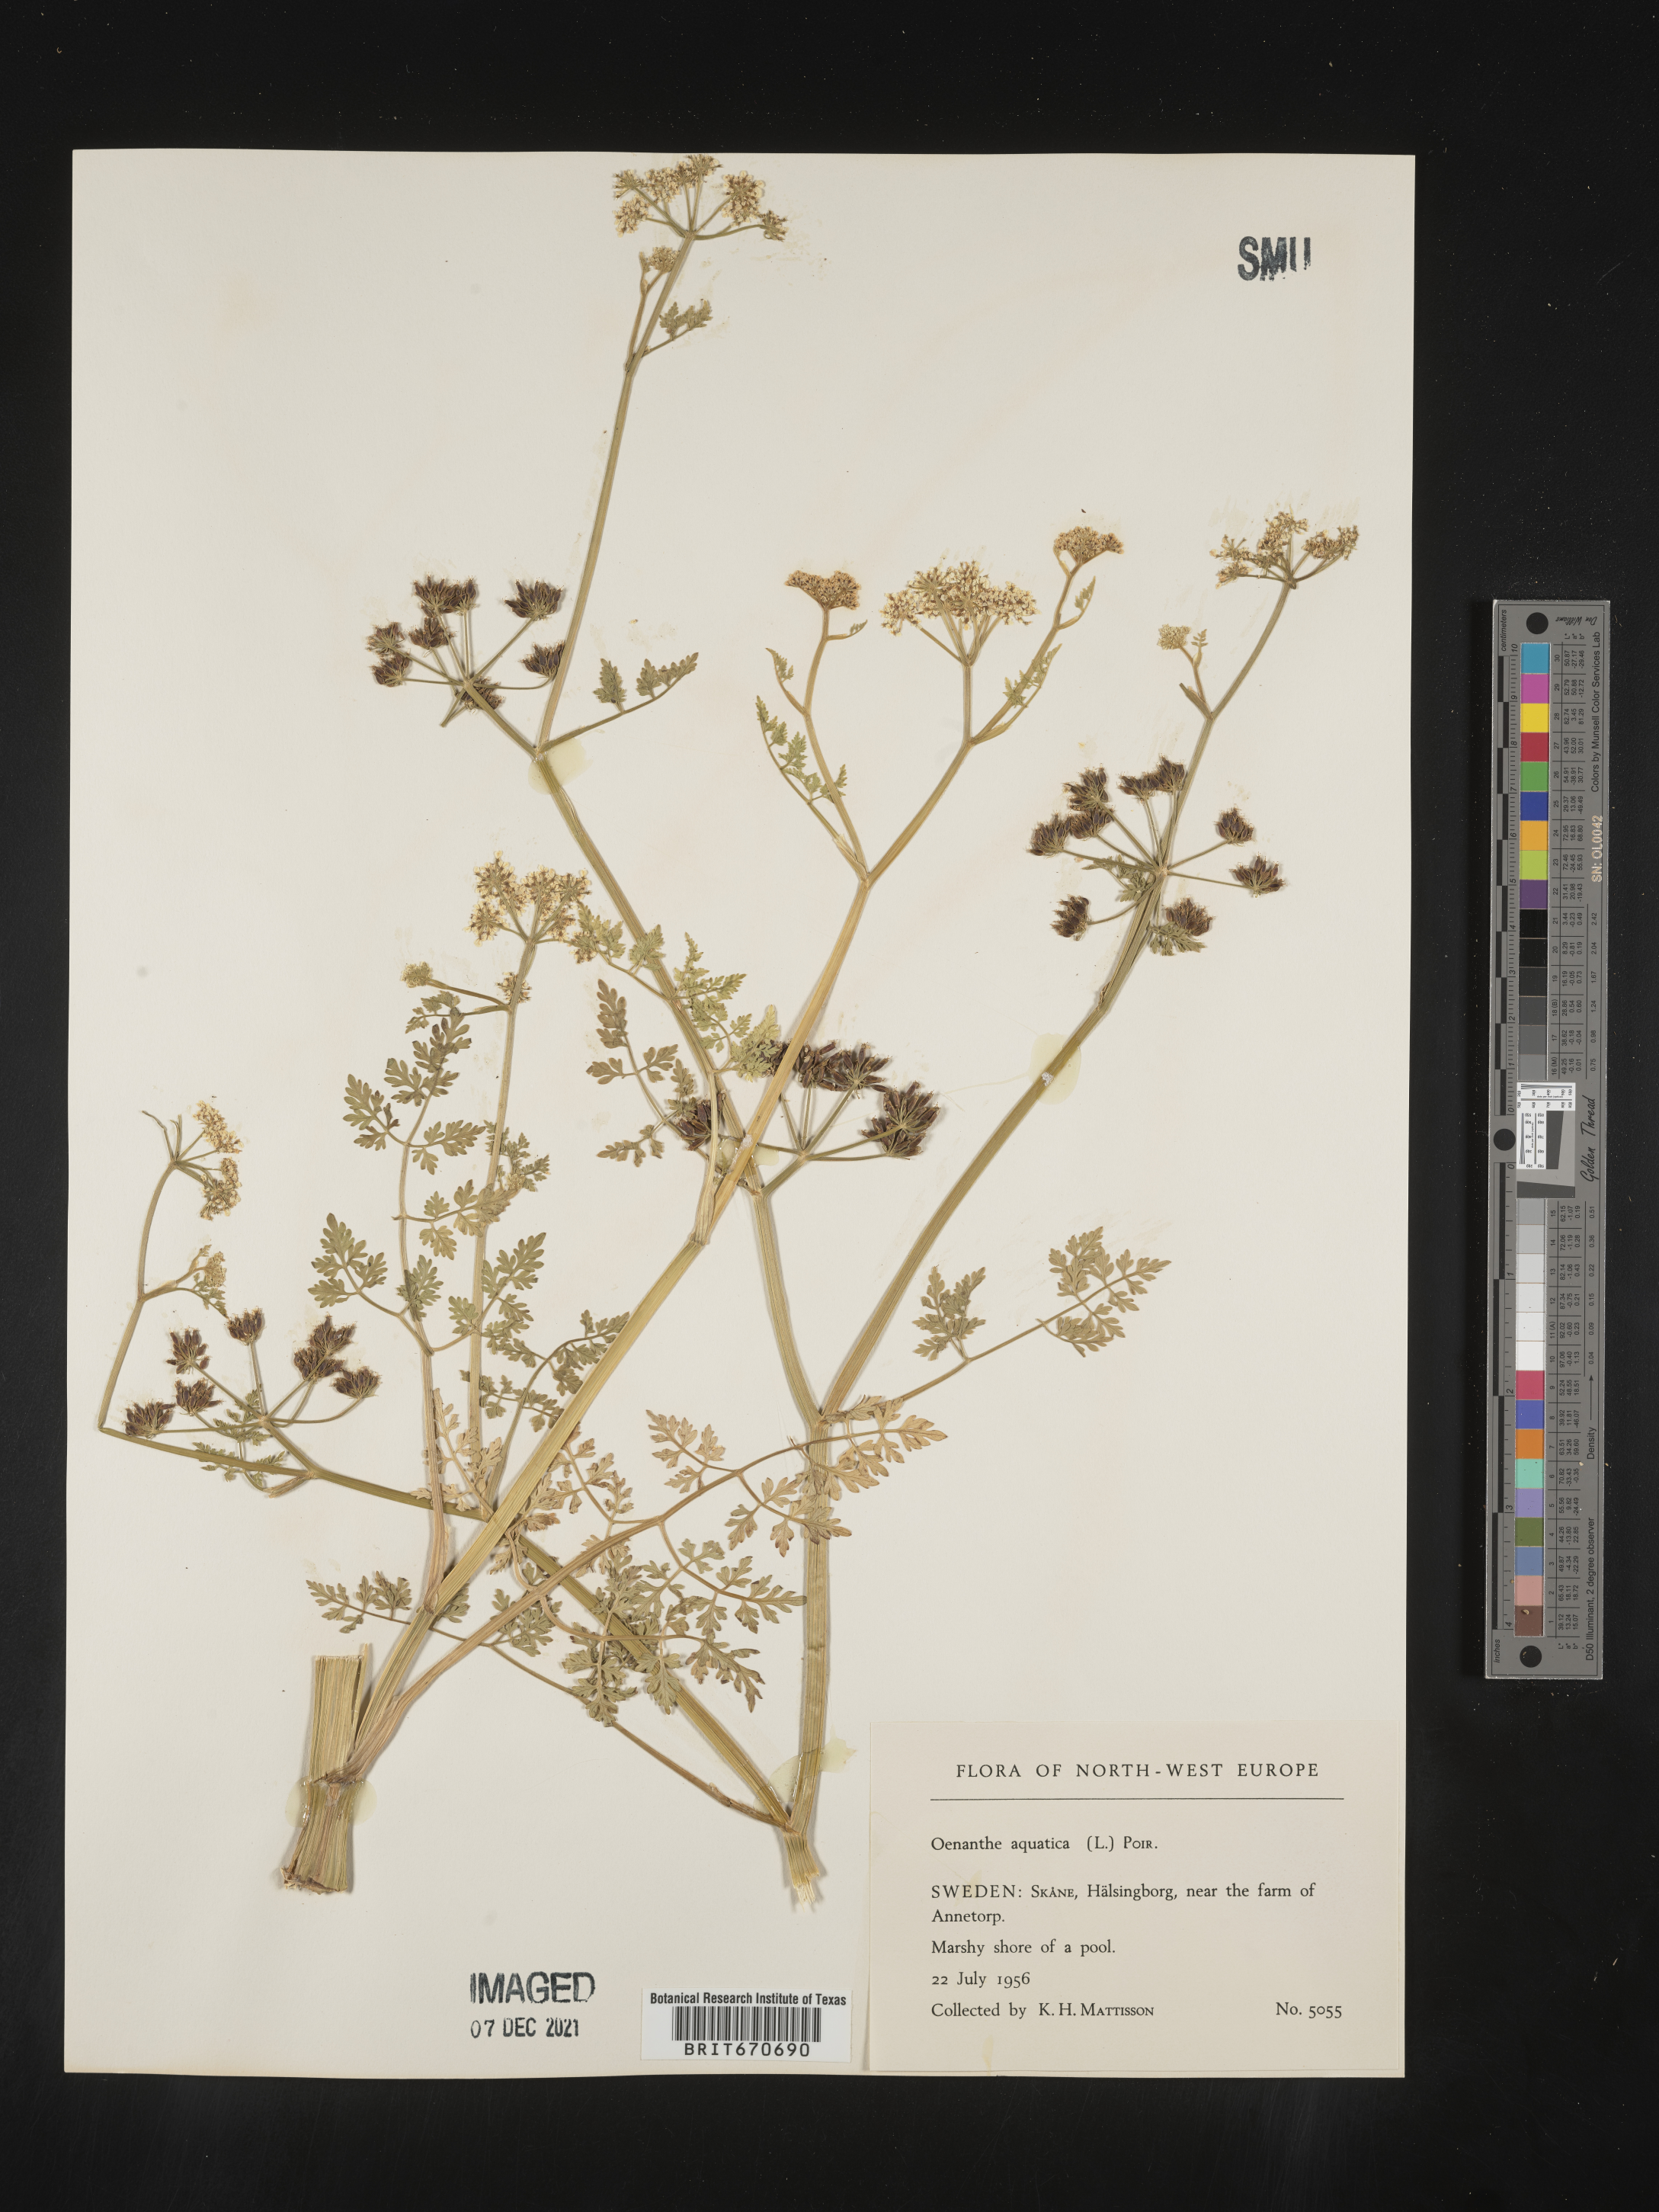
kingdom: Plantae
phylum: Tracheophyta
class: Magnoliopsida
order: Apiales
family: Apiaceae
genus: Oenanthe
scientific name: Oenanthe
